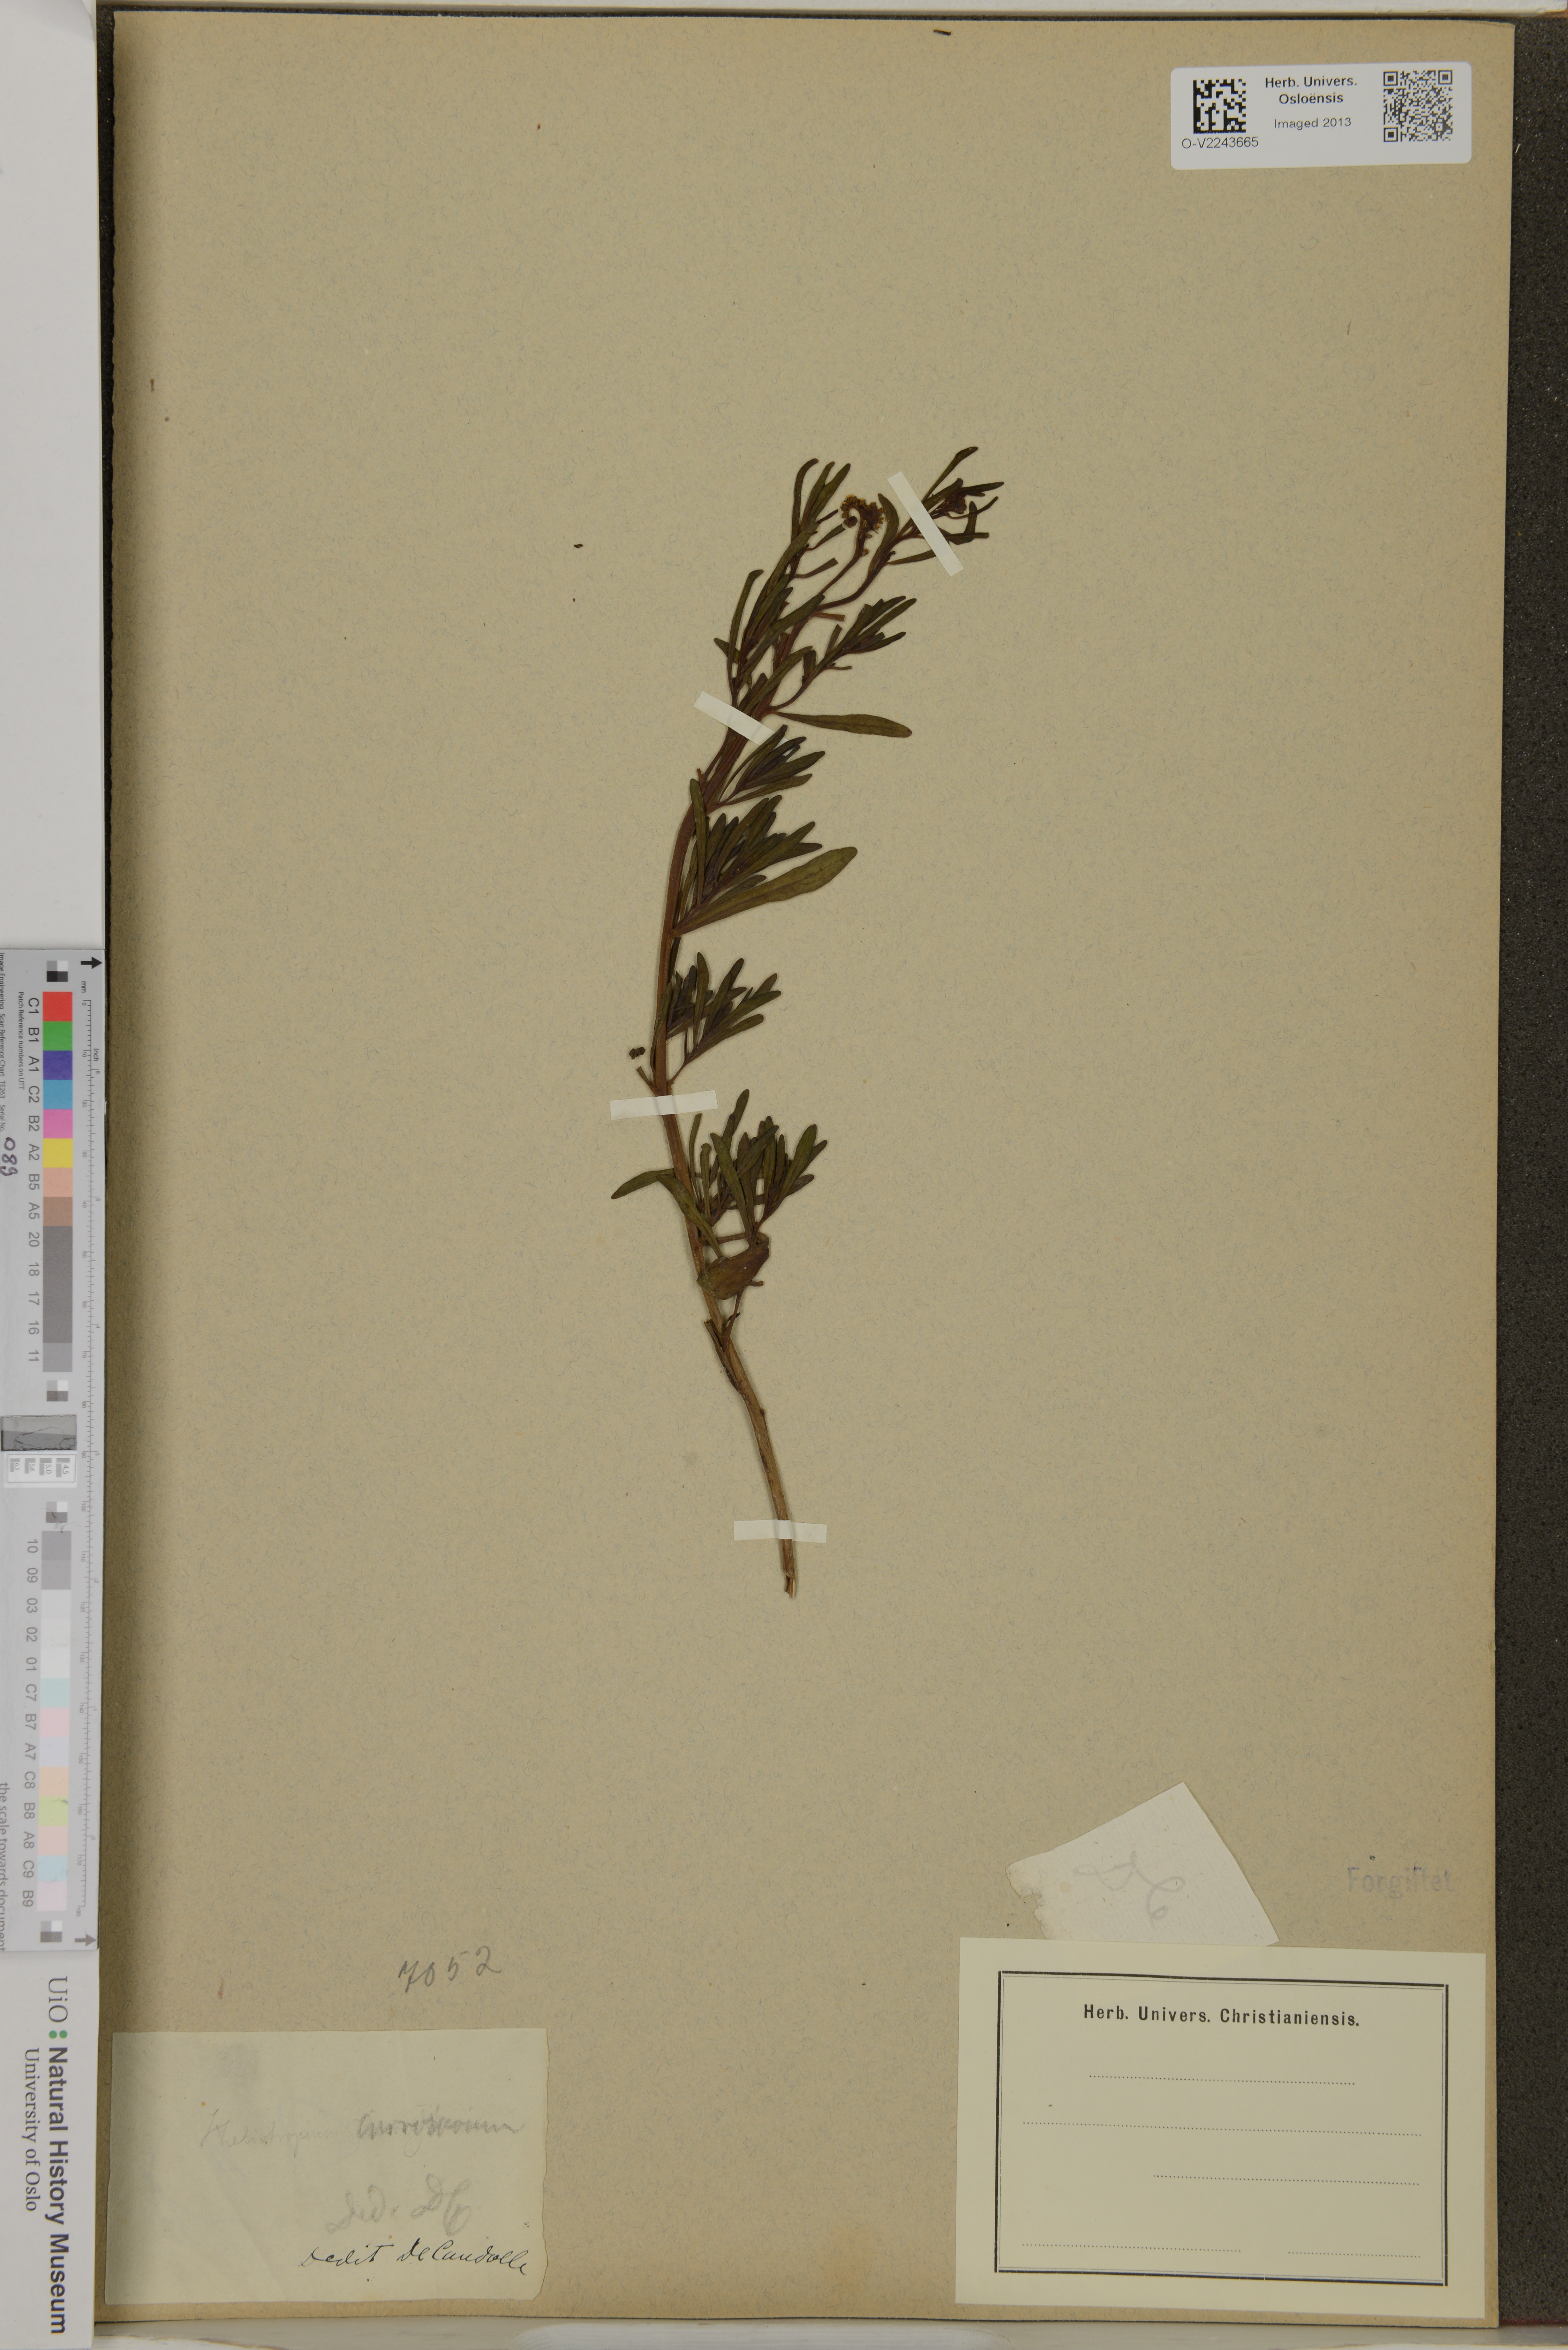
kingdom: Plantae
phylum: Tracheophyta
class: Magnoliopsida
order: Boraginales
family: Heliotropiaceae
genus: Heliotropium
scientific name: Heliotropium curassavicum
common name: Seaside heliotrope
